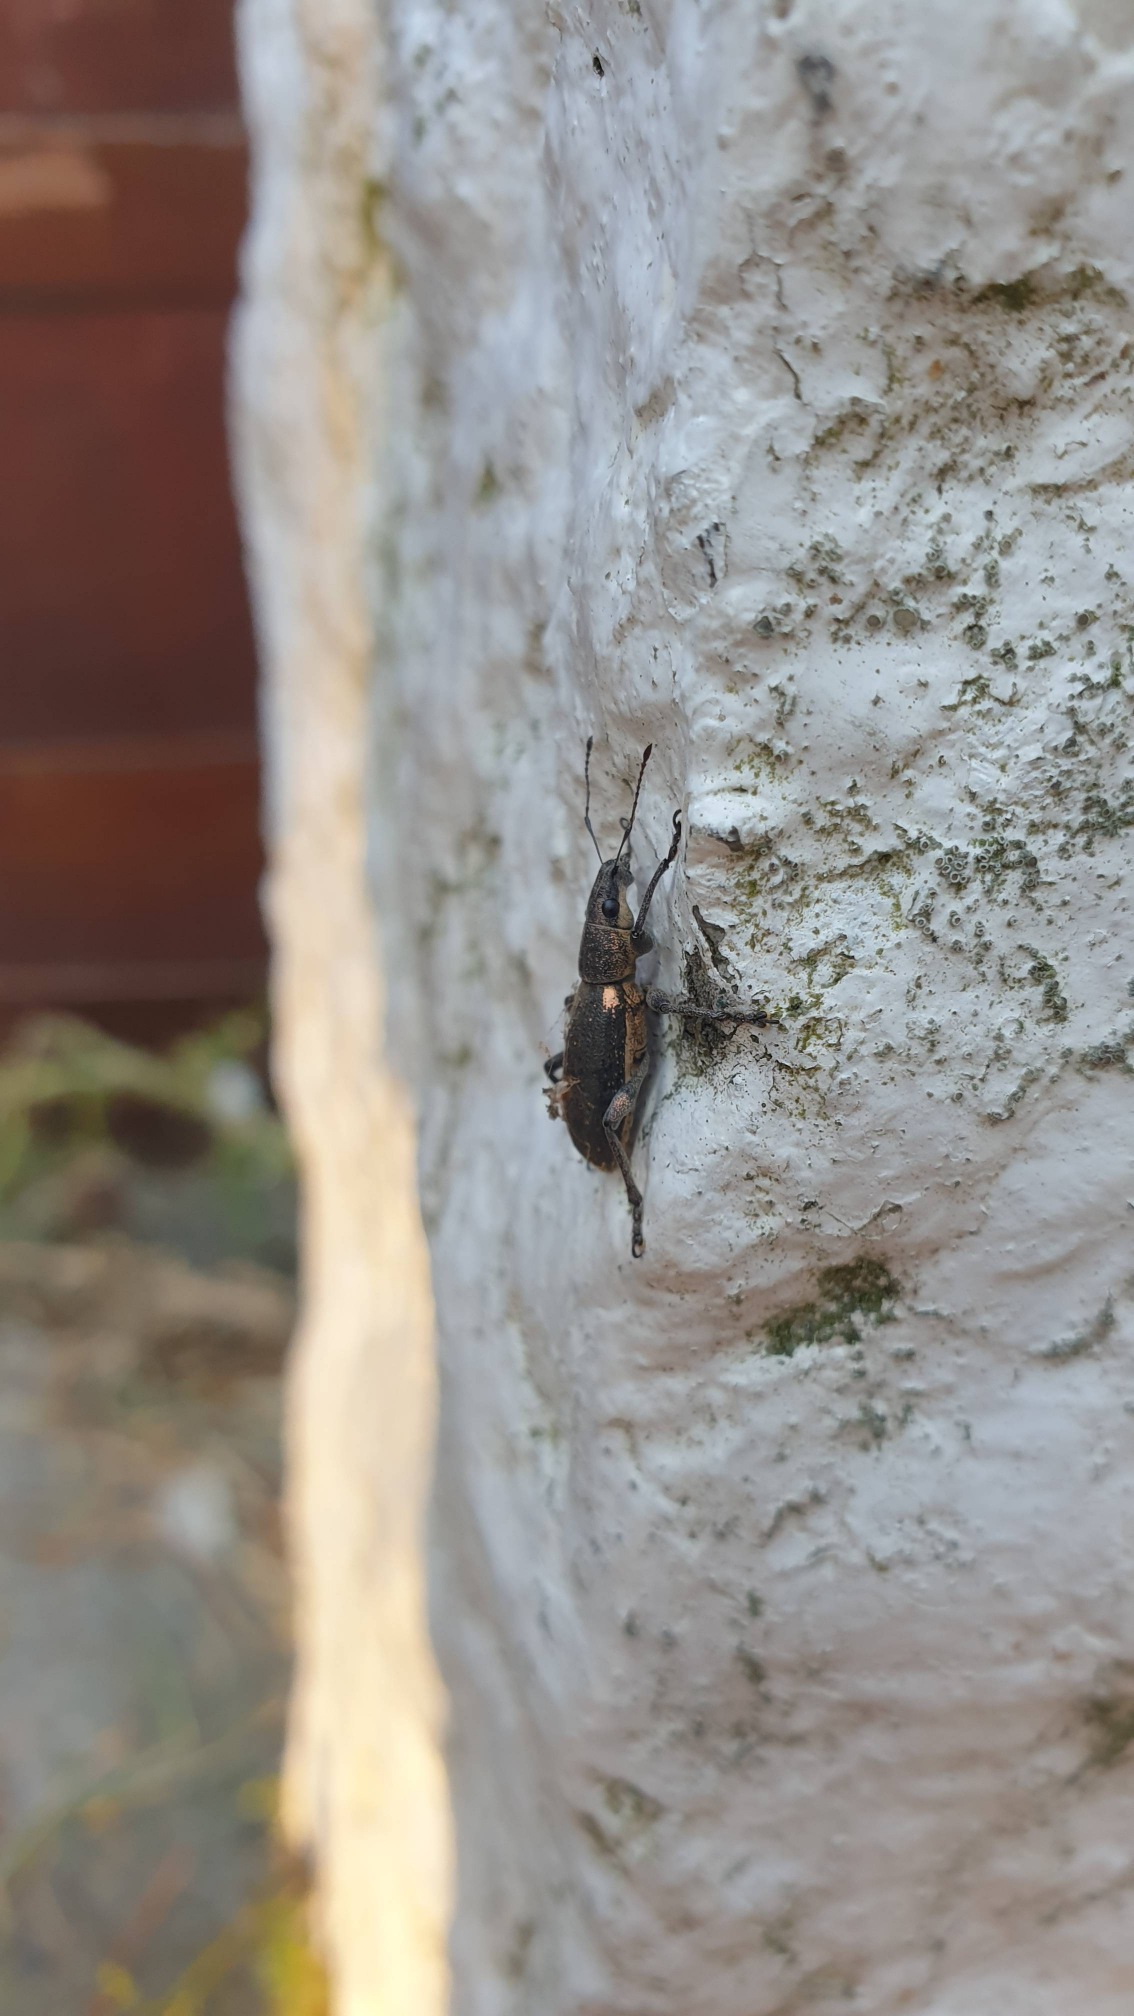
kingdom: Animalia
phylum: Arthropoda
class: Insecta
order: Coleoptera
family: Curculionidae
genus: Brachyderes
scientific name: Brachyderes lusitanicus
